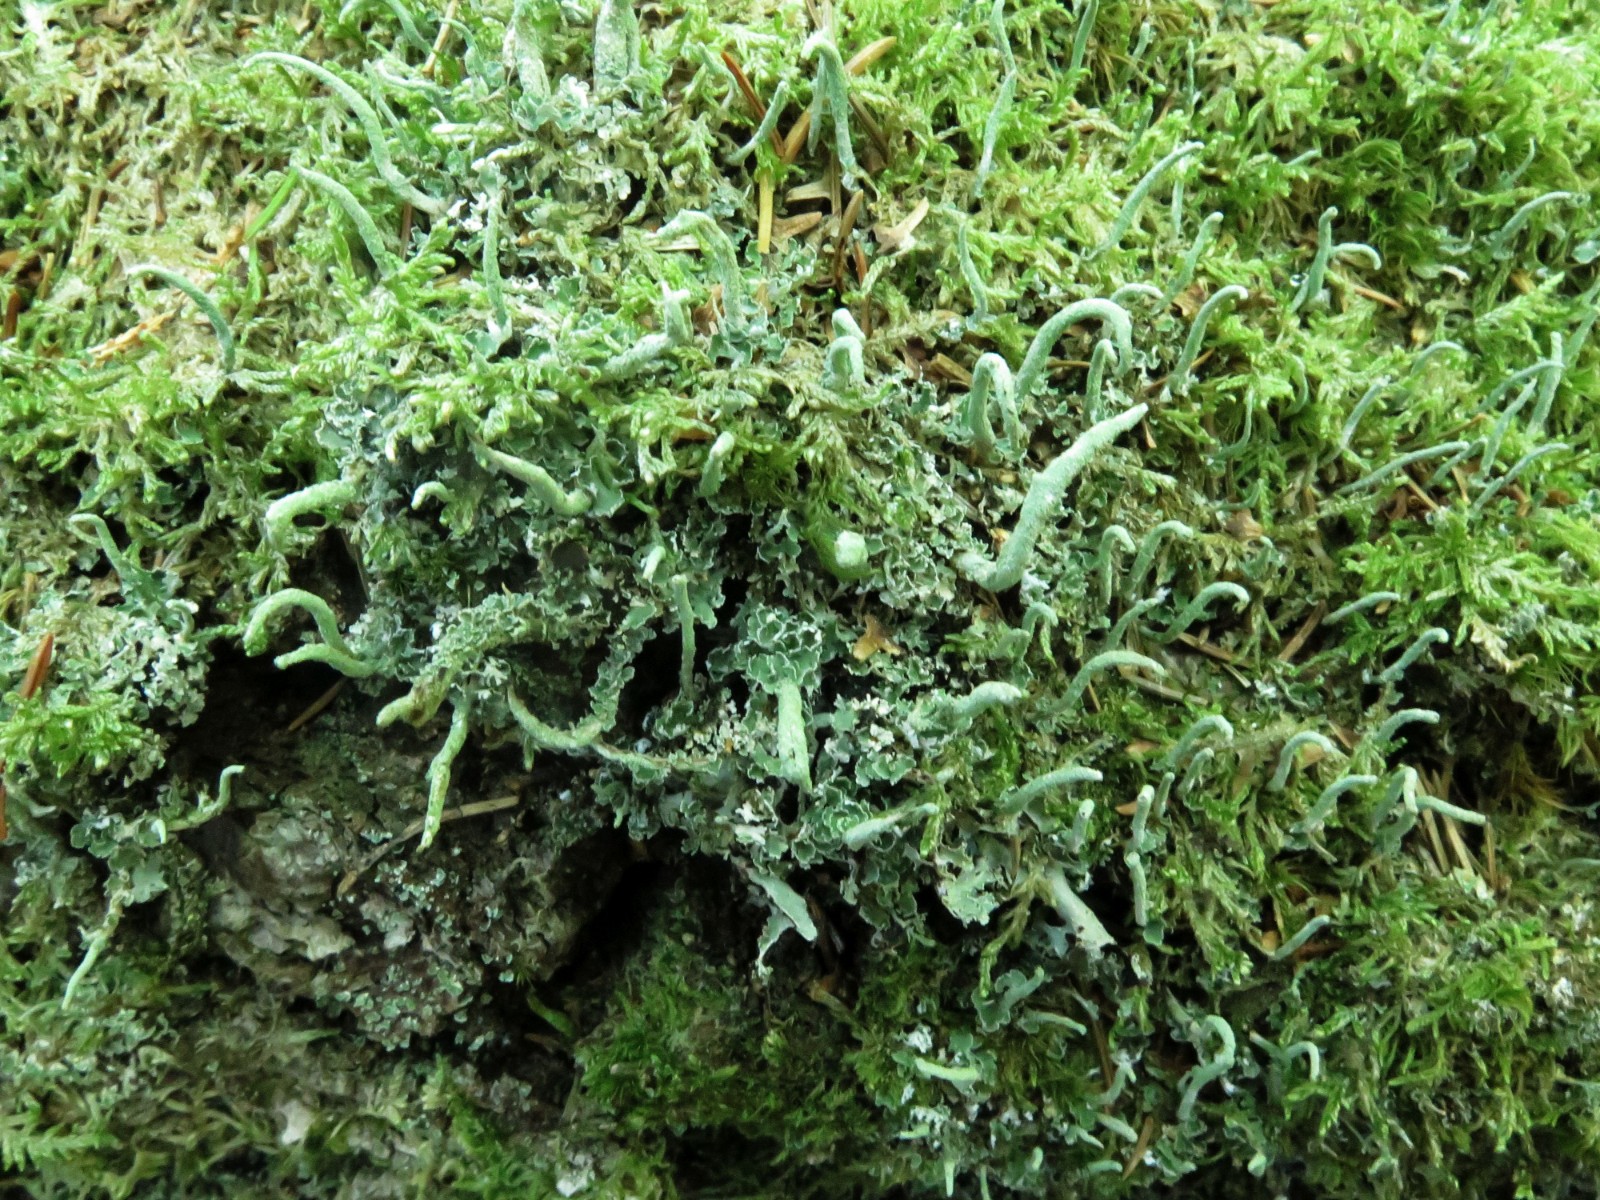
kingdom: Fungi
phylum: Ascomycota
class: Lecanoromycetes
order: Lecanorales
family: Cladoniaceae
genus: Cladonia
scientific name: Cladonia coniocraea
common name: træfods-bægerlav
